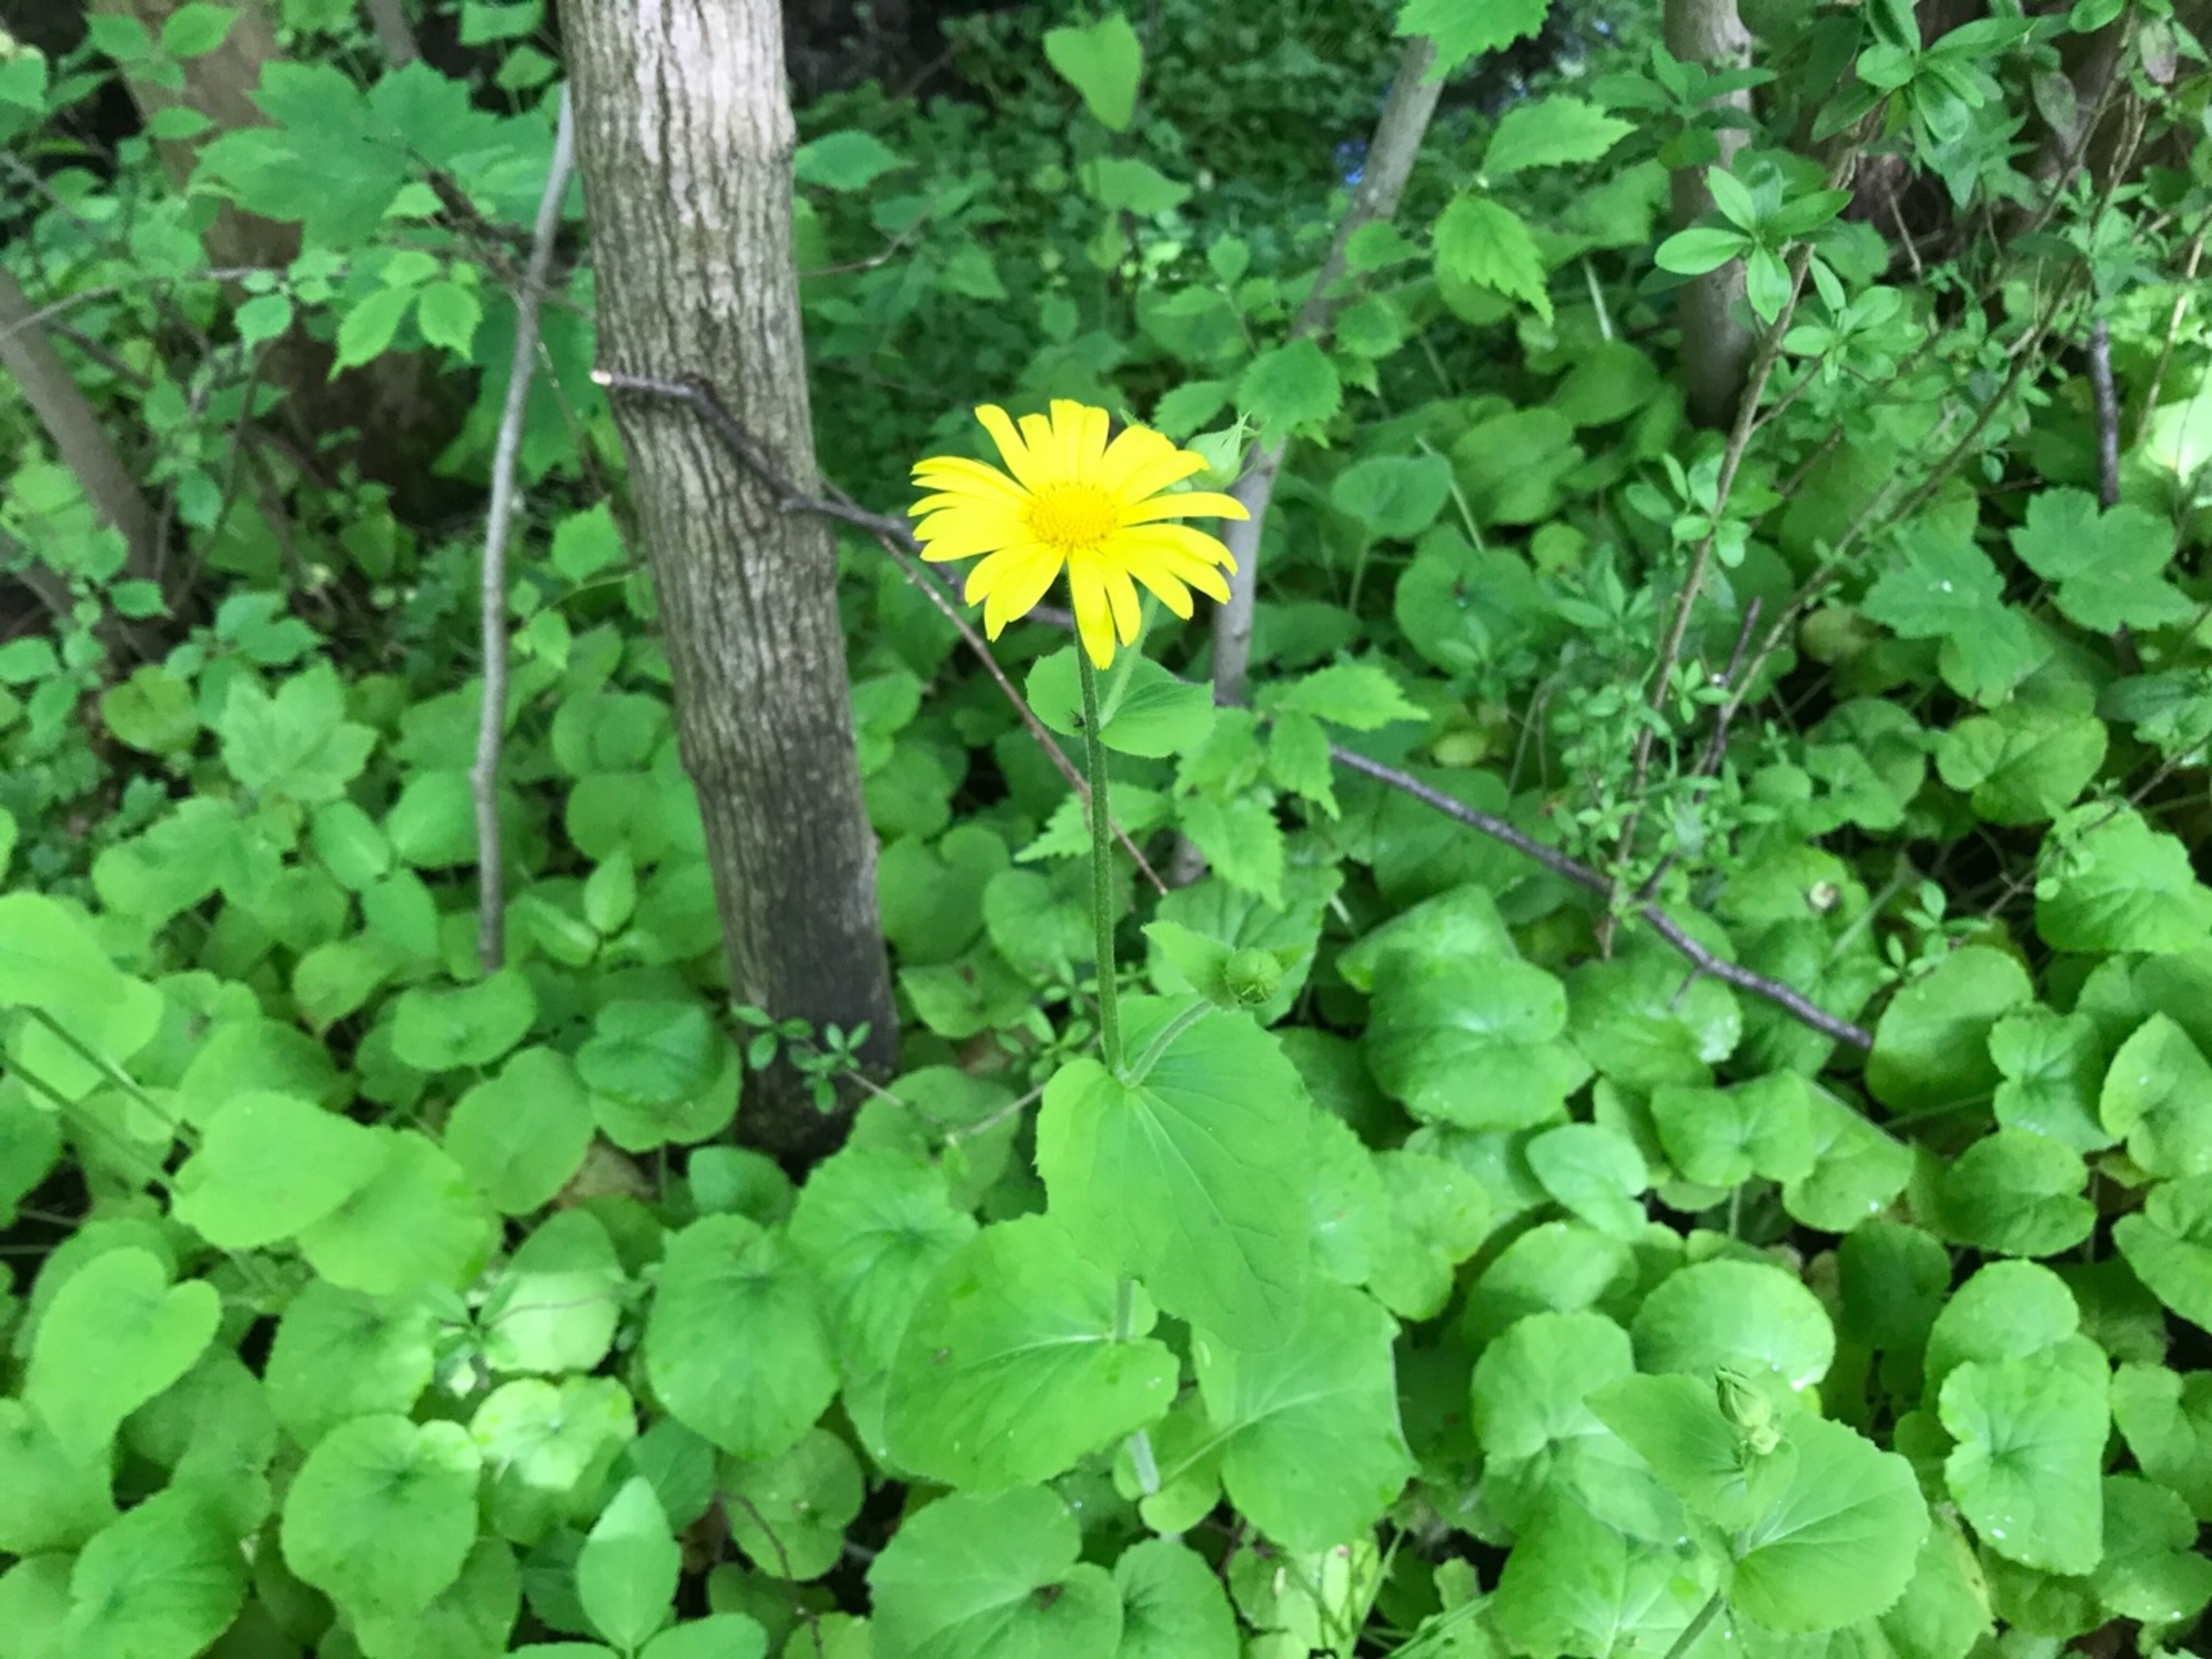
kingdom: Plantae
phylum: Tracheophyta
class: Magnoliopsida
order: Asterales
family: Asteraceae
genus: Doronicum
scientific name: Doronicum pardalianches
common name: Hjertebladet gemserod
